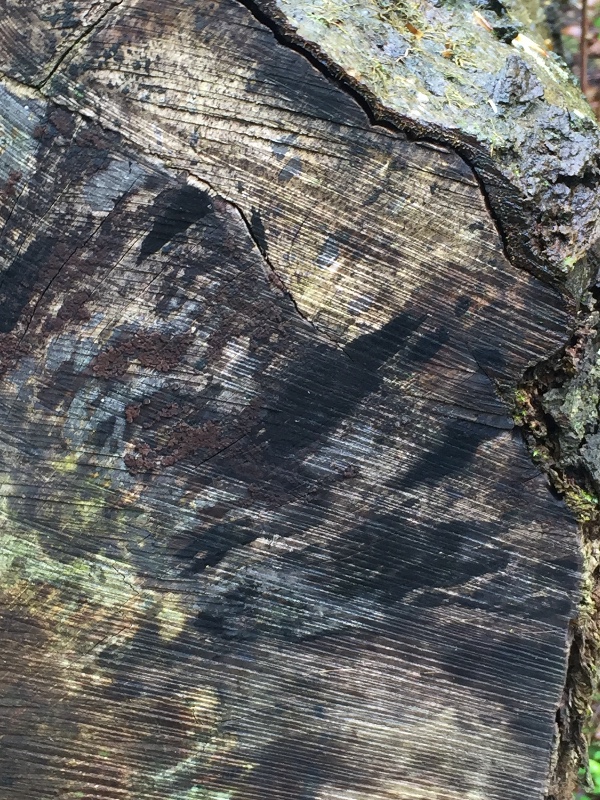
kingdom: Fungi
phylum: Ascomycota
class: Leotiomycetes
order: Helotiales
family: Helotiaceae
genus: Bispora
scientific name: Bispora pallescens
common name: måtte-snitskive
